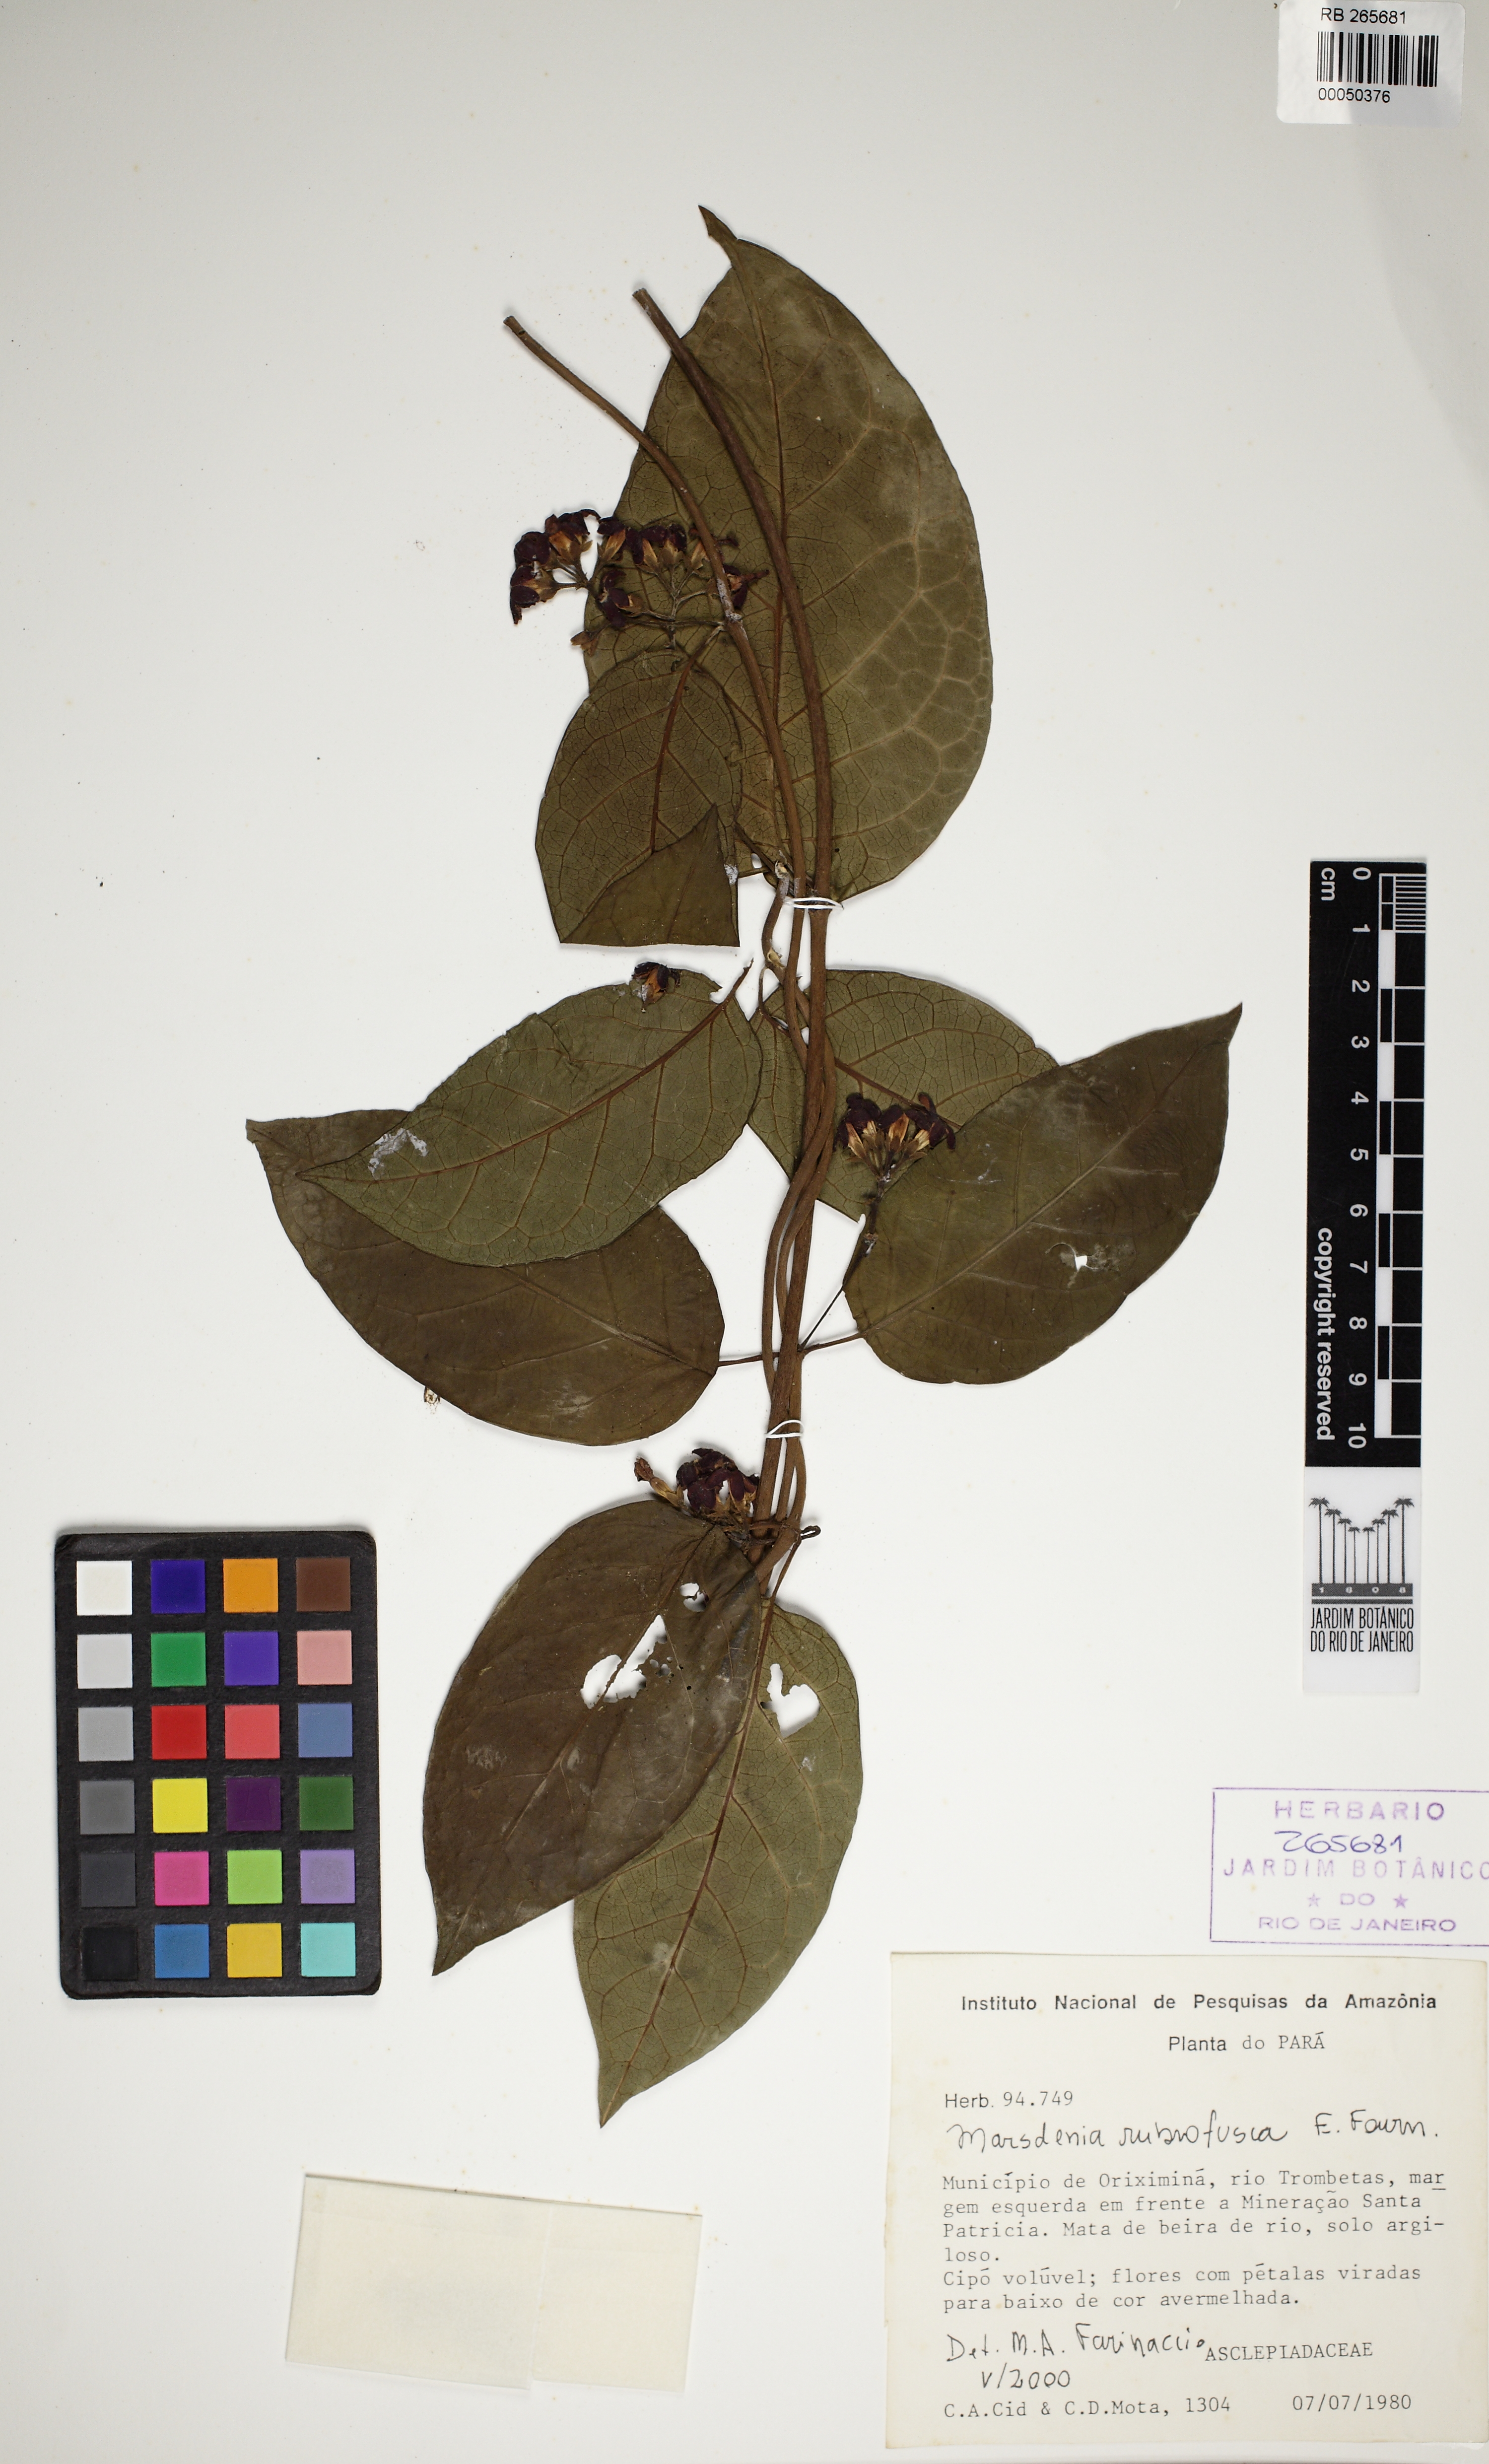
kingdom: Plantae
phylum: Tracheophyta
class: Magnoliopsida
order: Gentianales
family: Apocynaceae
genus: Ruehssia
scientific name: Ruehssia rubrofusca
